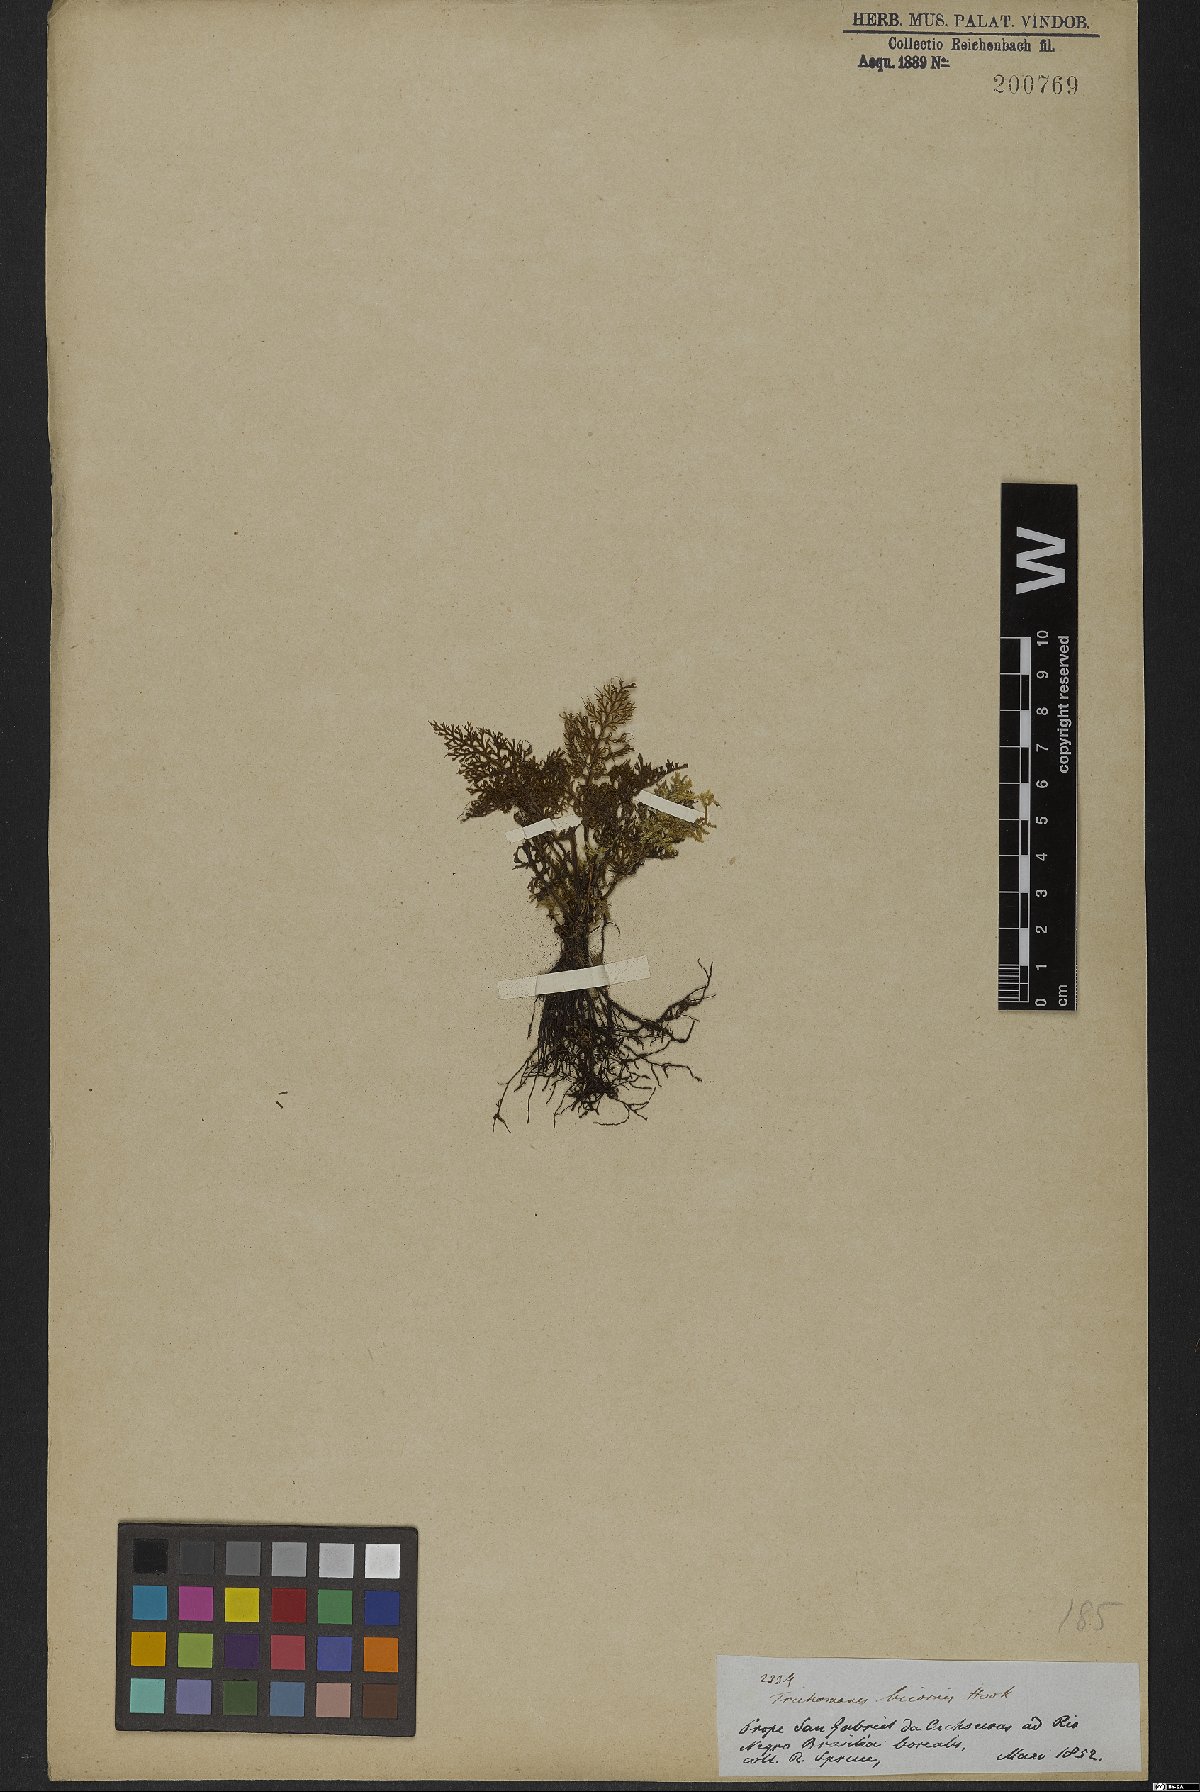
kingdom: Plantae
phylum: Tracheophyta
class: Polypodiopsida
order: Hymenophyllales
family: Hymenophyllaceae
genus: Trichomanes
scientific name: Trichomanes bicorne
